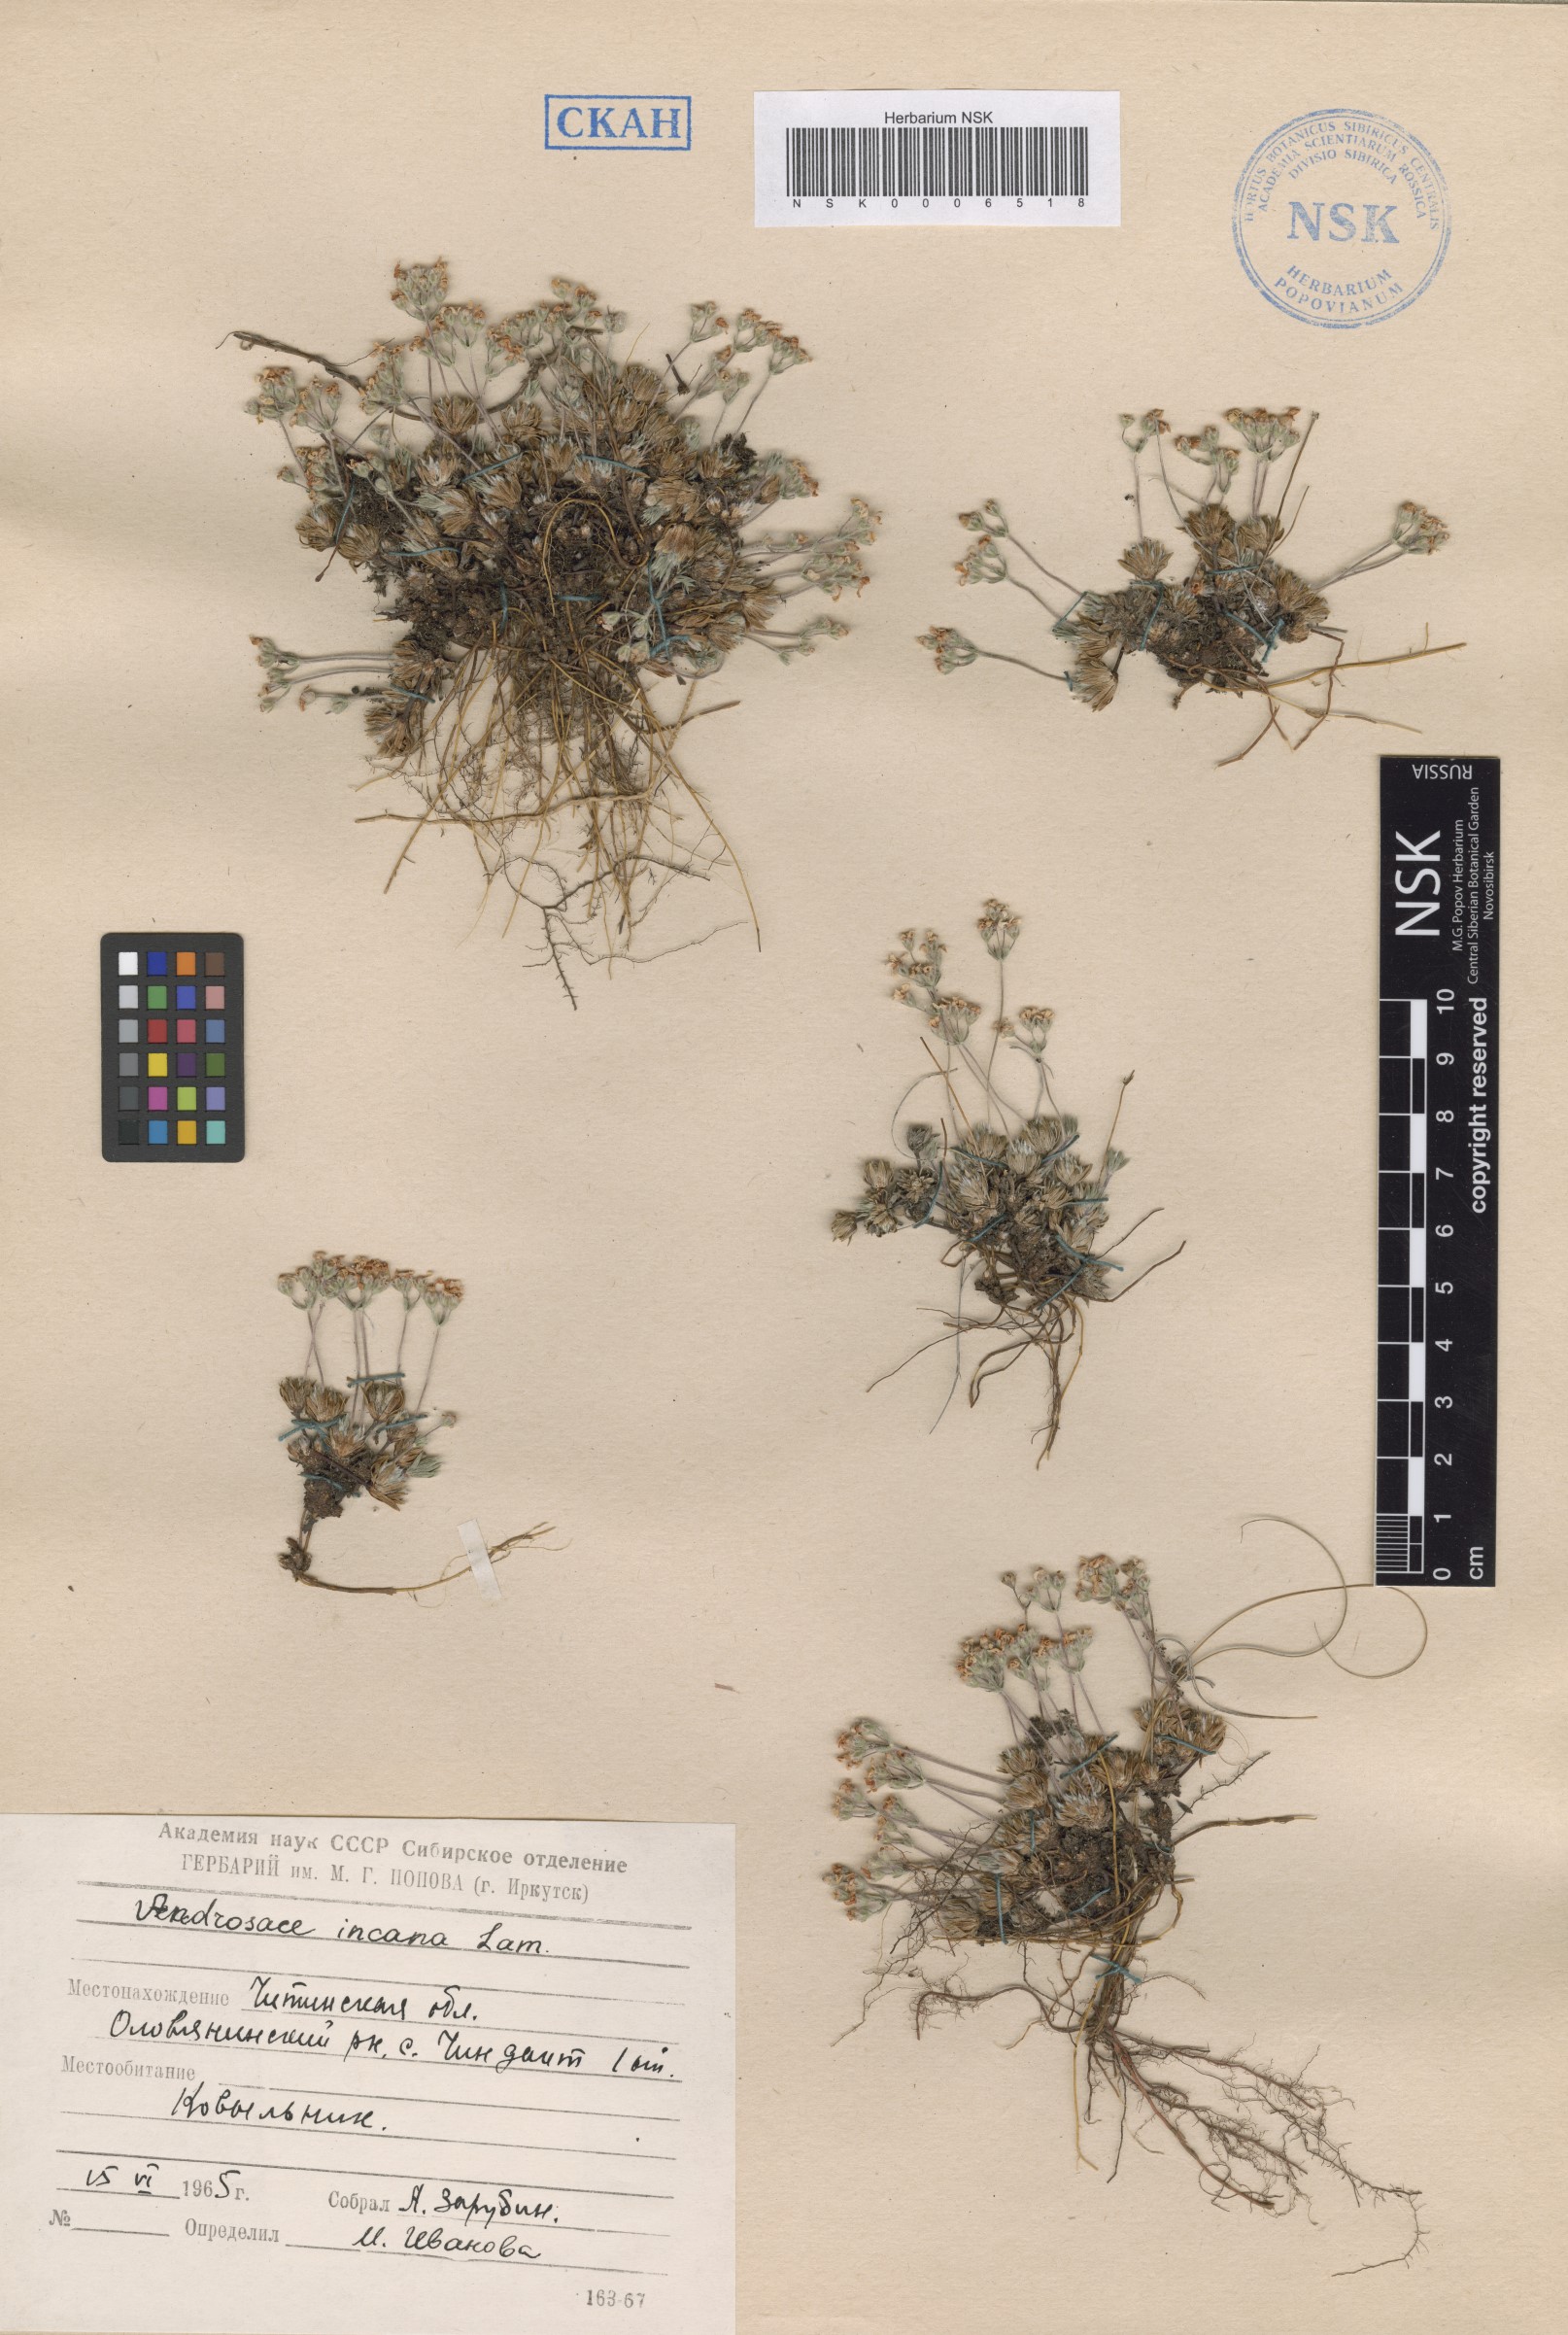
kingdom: Plantae
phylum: Tracheophyta
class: Magnoliopsida
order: Ericales
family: Primulaceae
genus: Androsace
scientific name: Androsace incana
